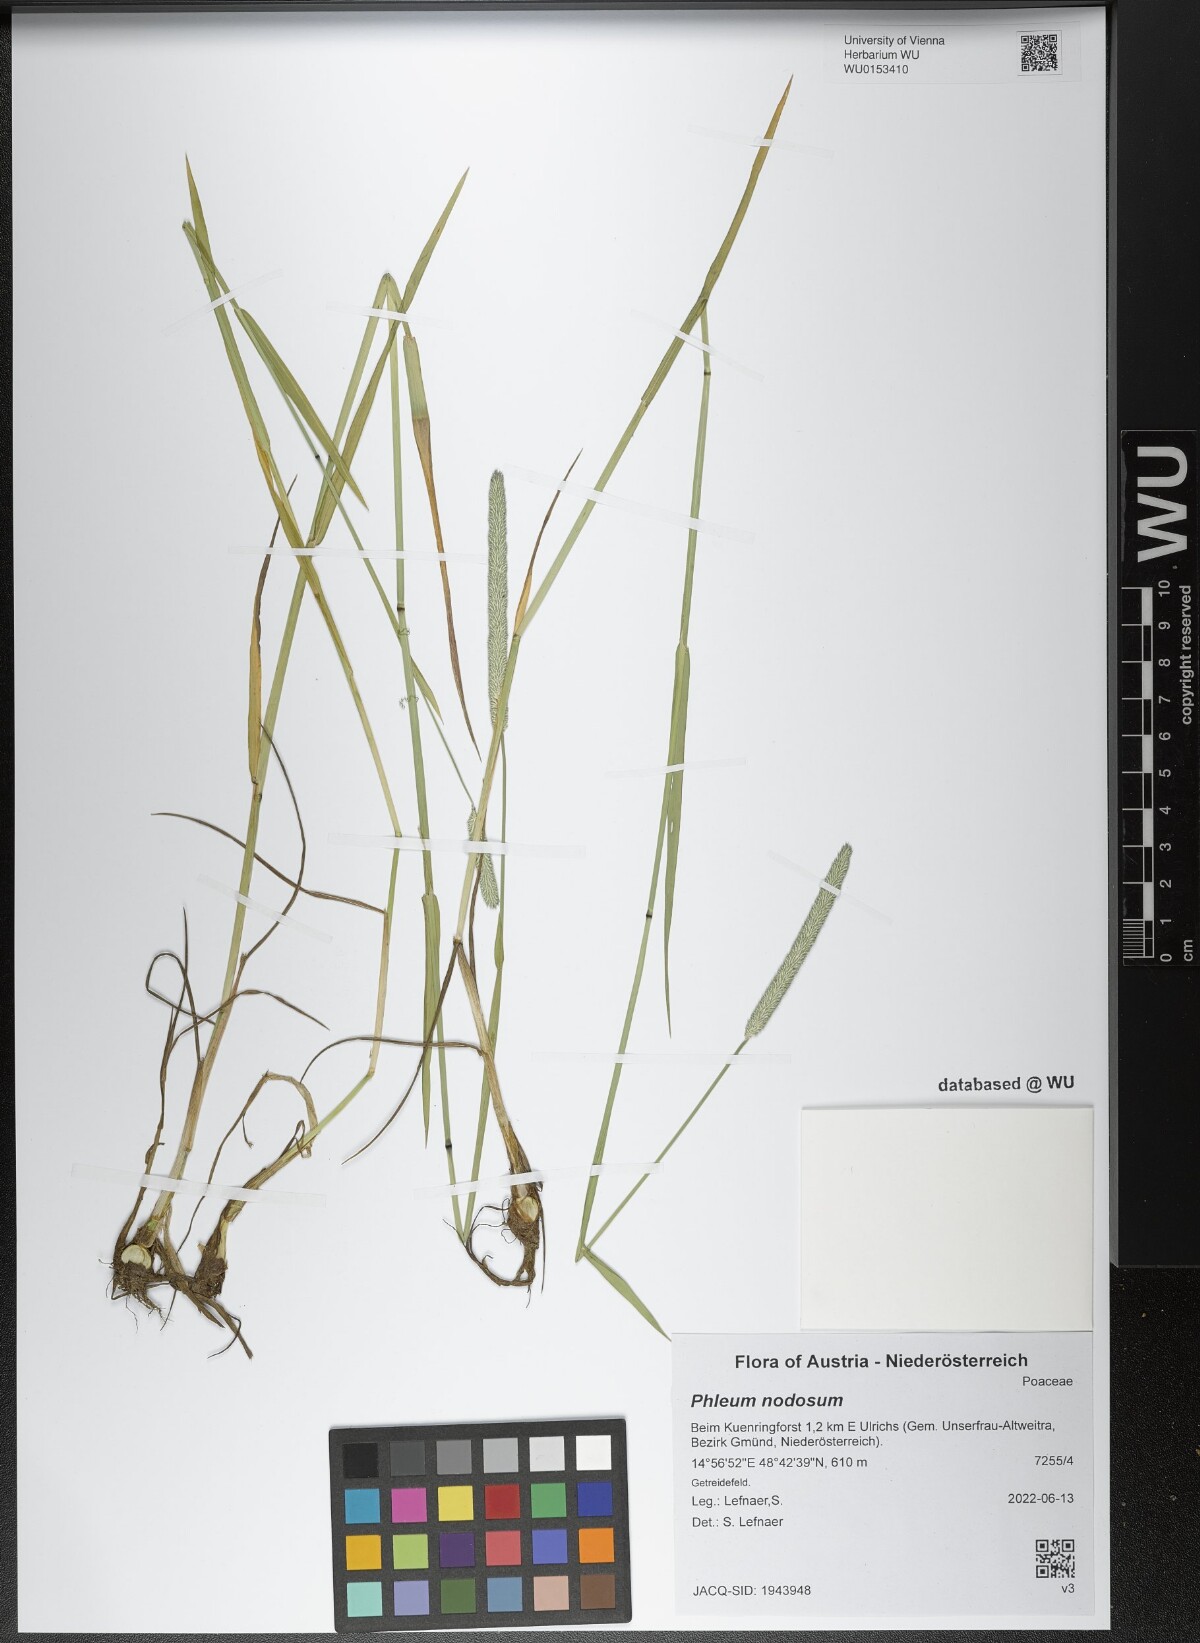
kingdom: Plantae
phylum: Tracheophyta
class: Liliopsida
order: Poales
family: Poaceae
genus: Phleum
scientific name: Phleum pratense
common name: Timothy grass
